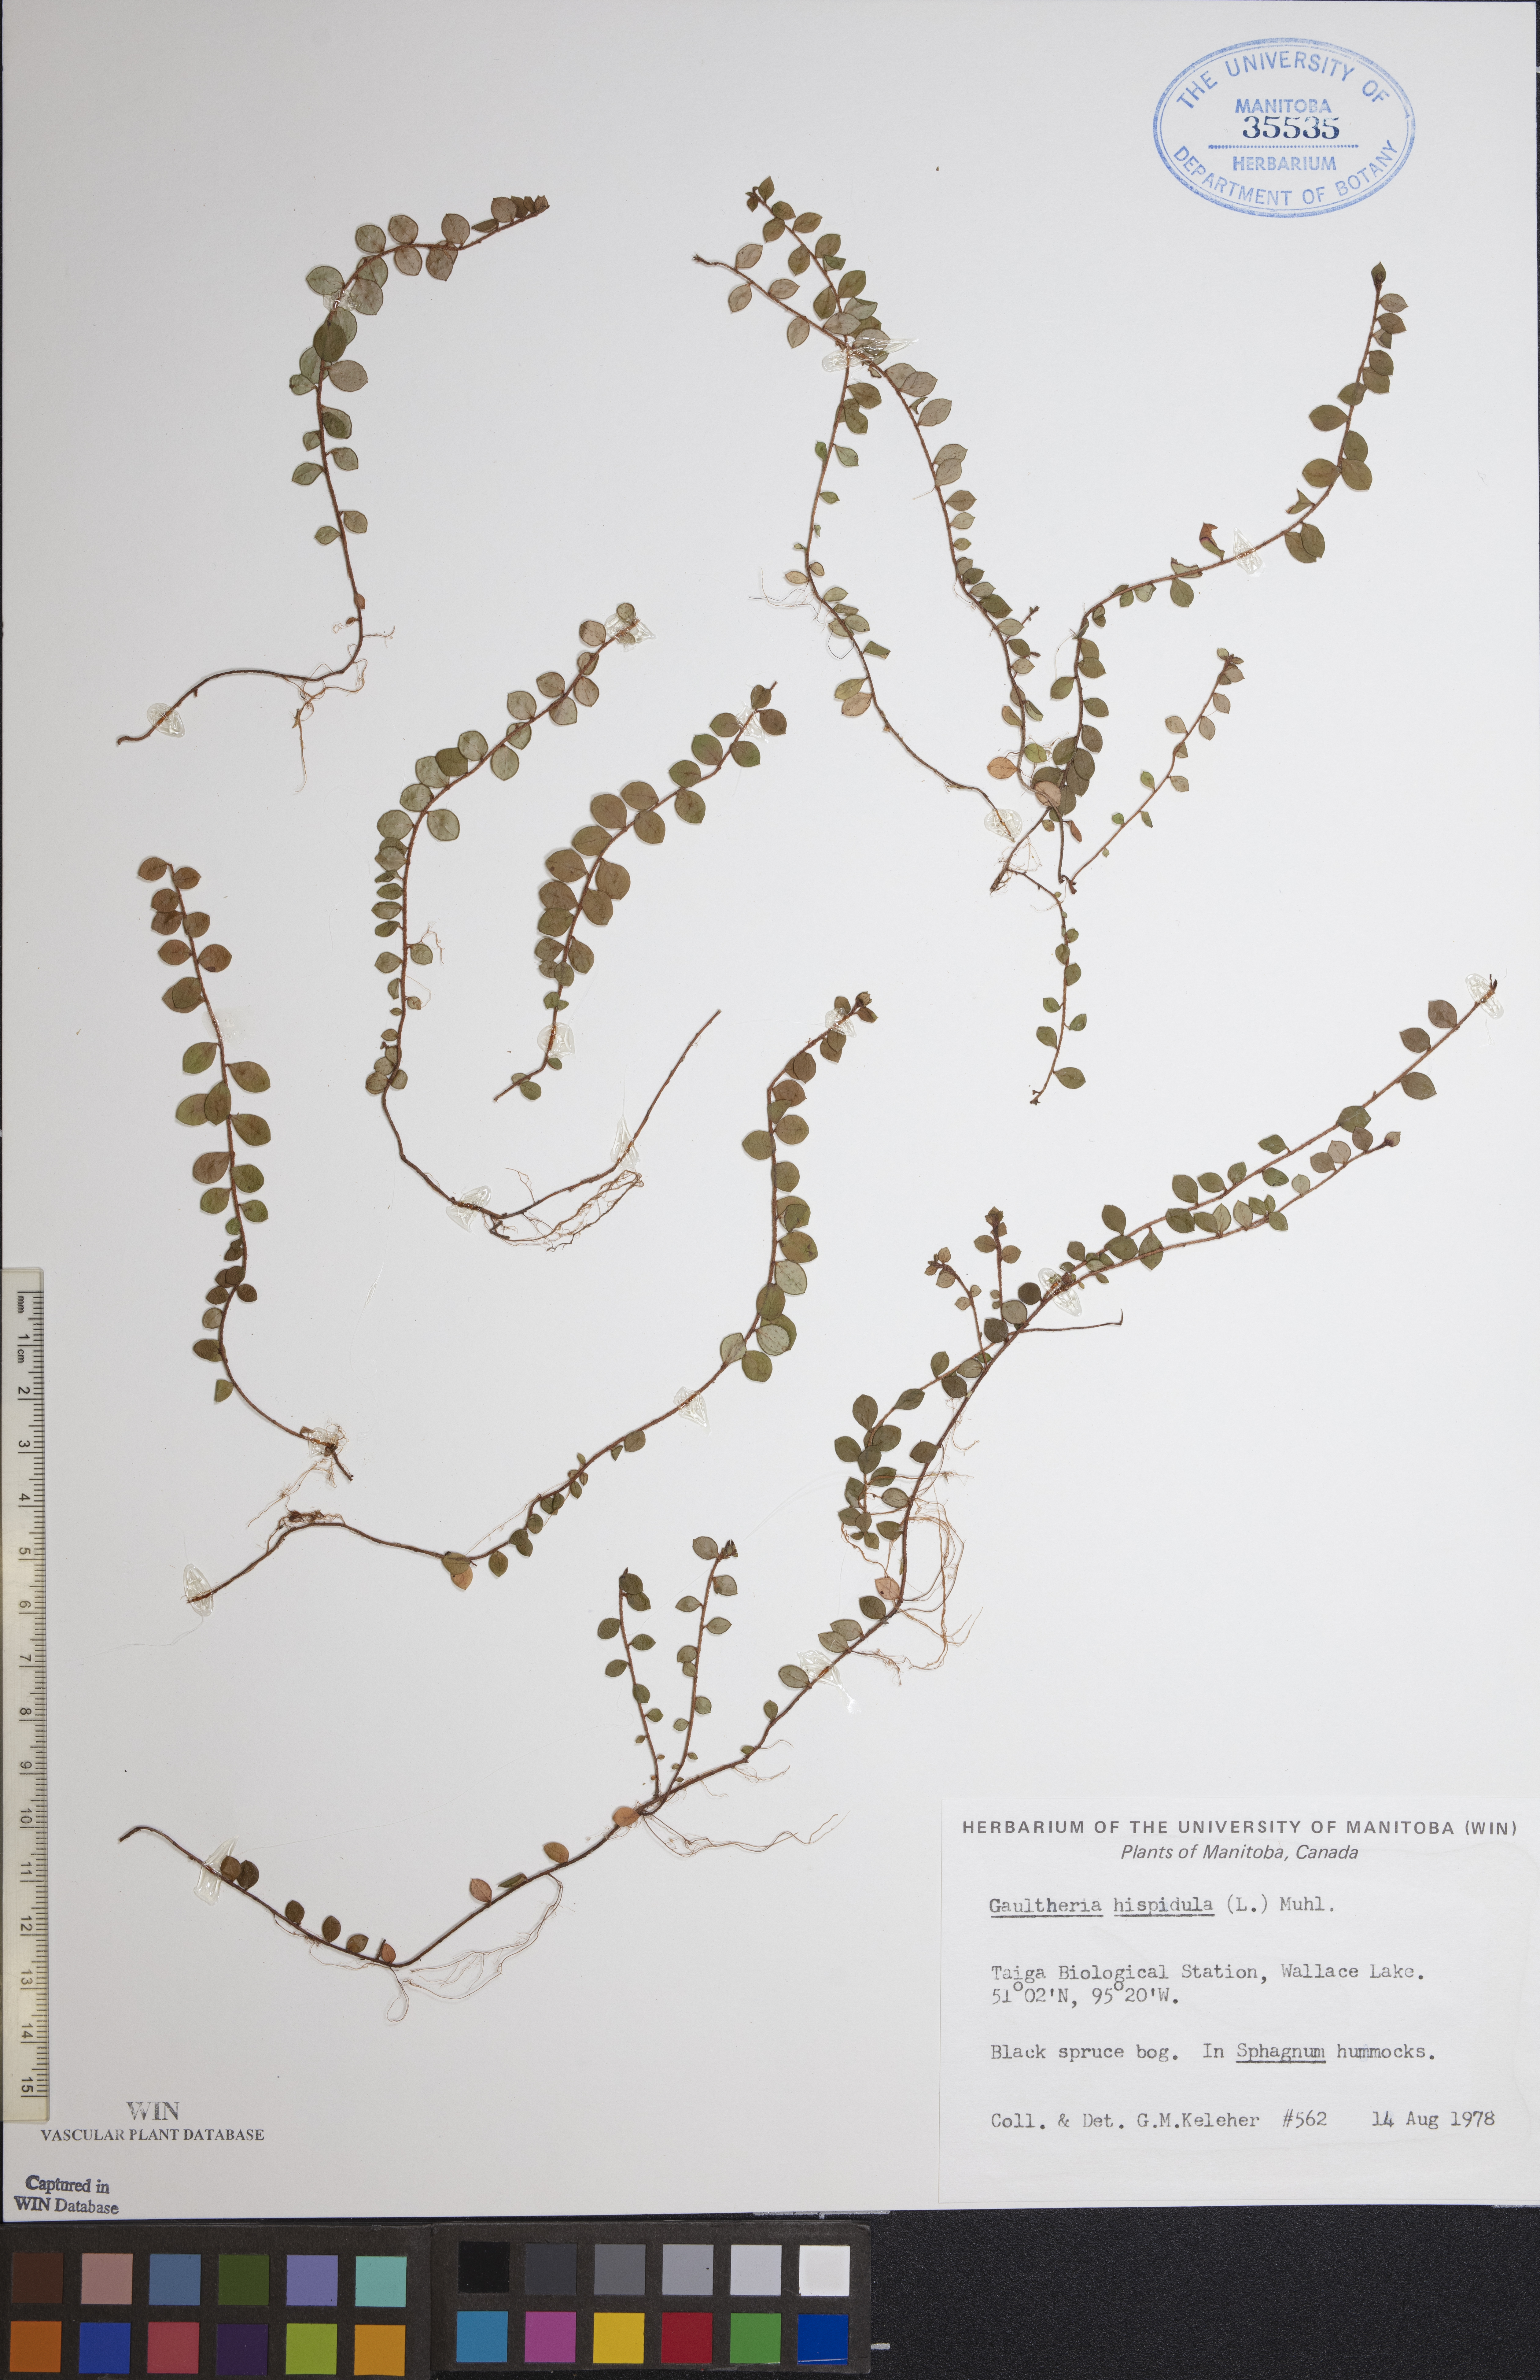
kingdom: Plantae
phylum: Tracheophyta
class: Magnoliopsida
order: Ericales
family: Ericaceae
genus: Gaultheria
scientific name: Gaultheria hispidula
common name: Cancer wintergreen
